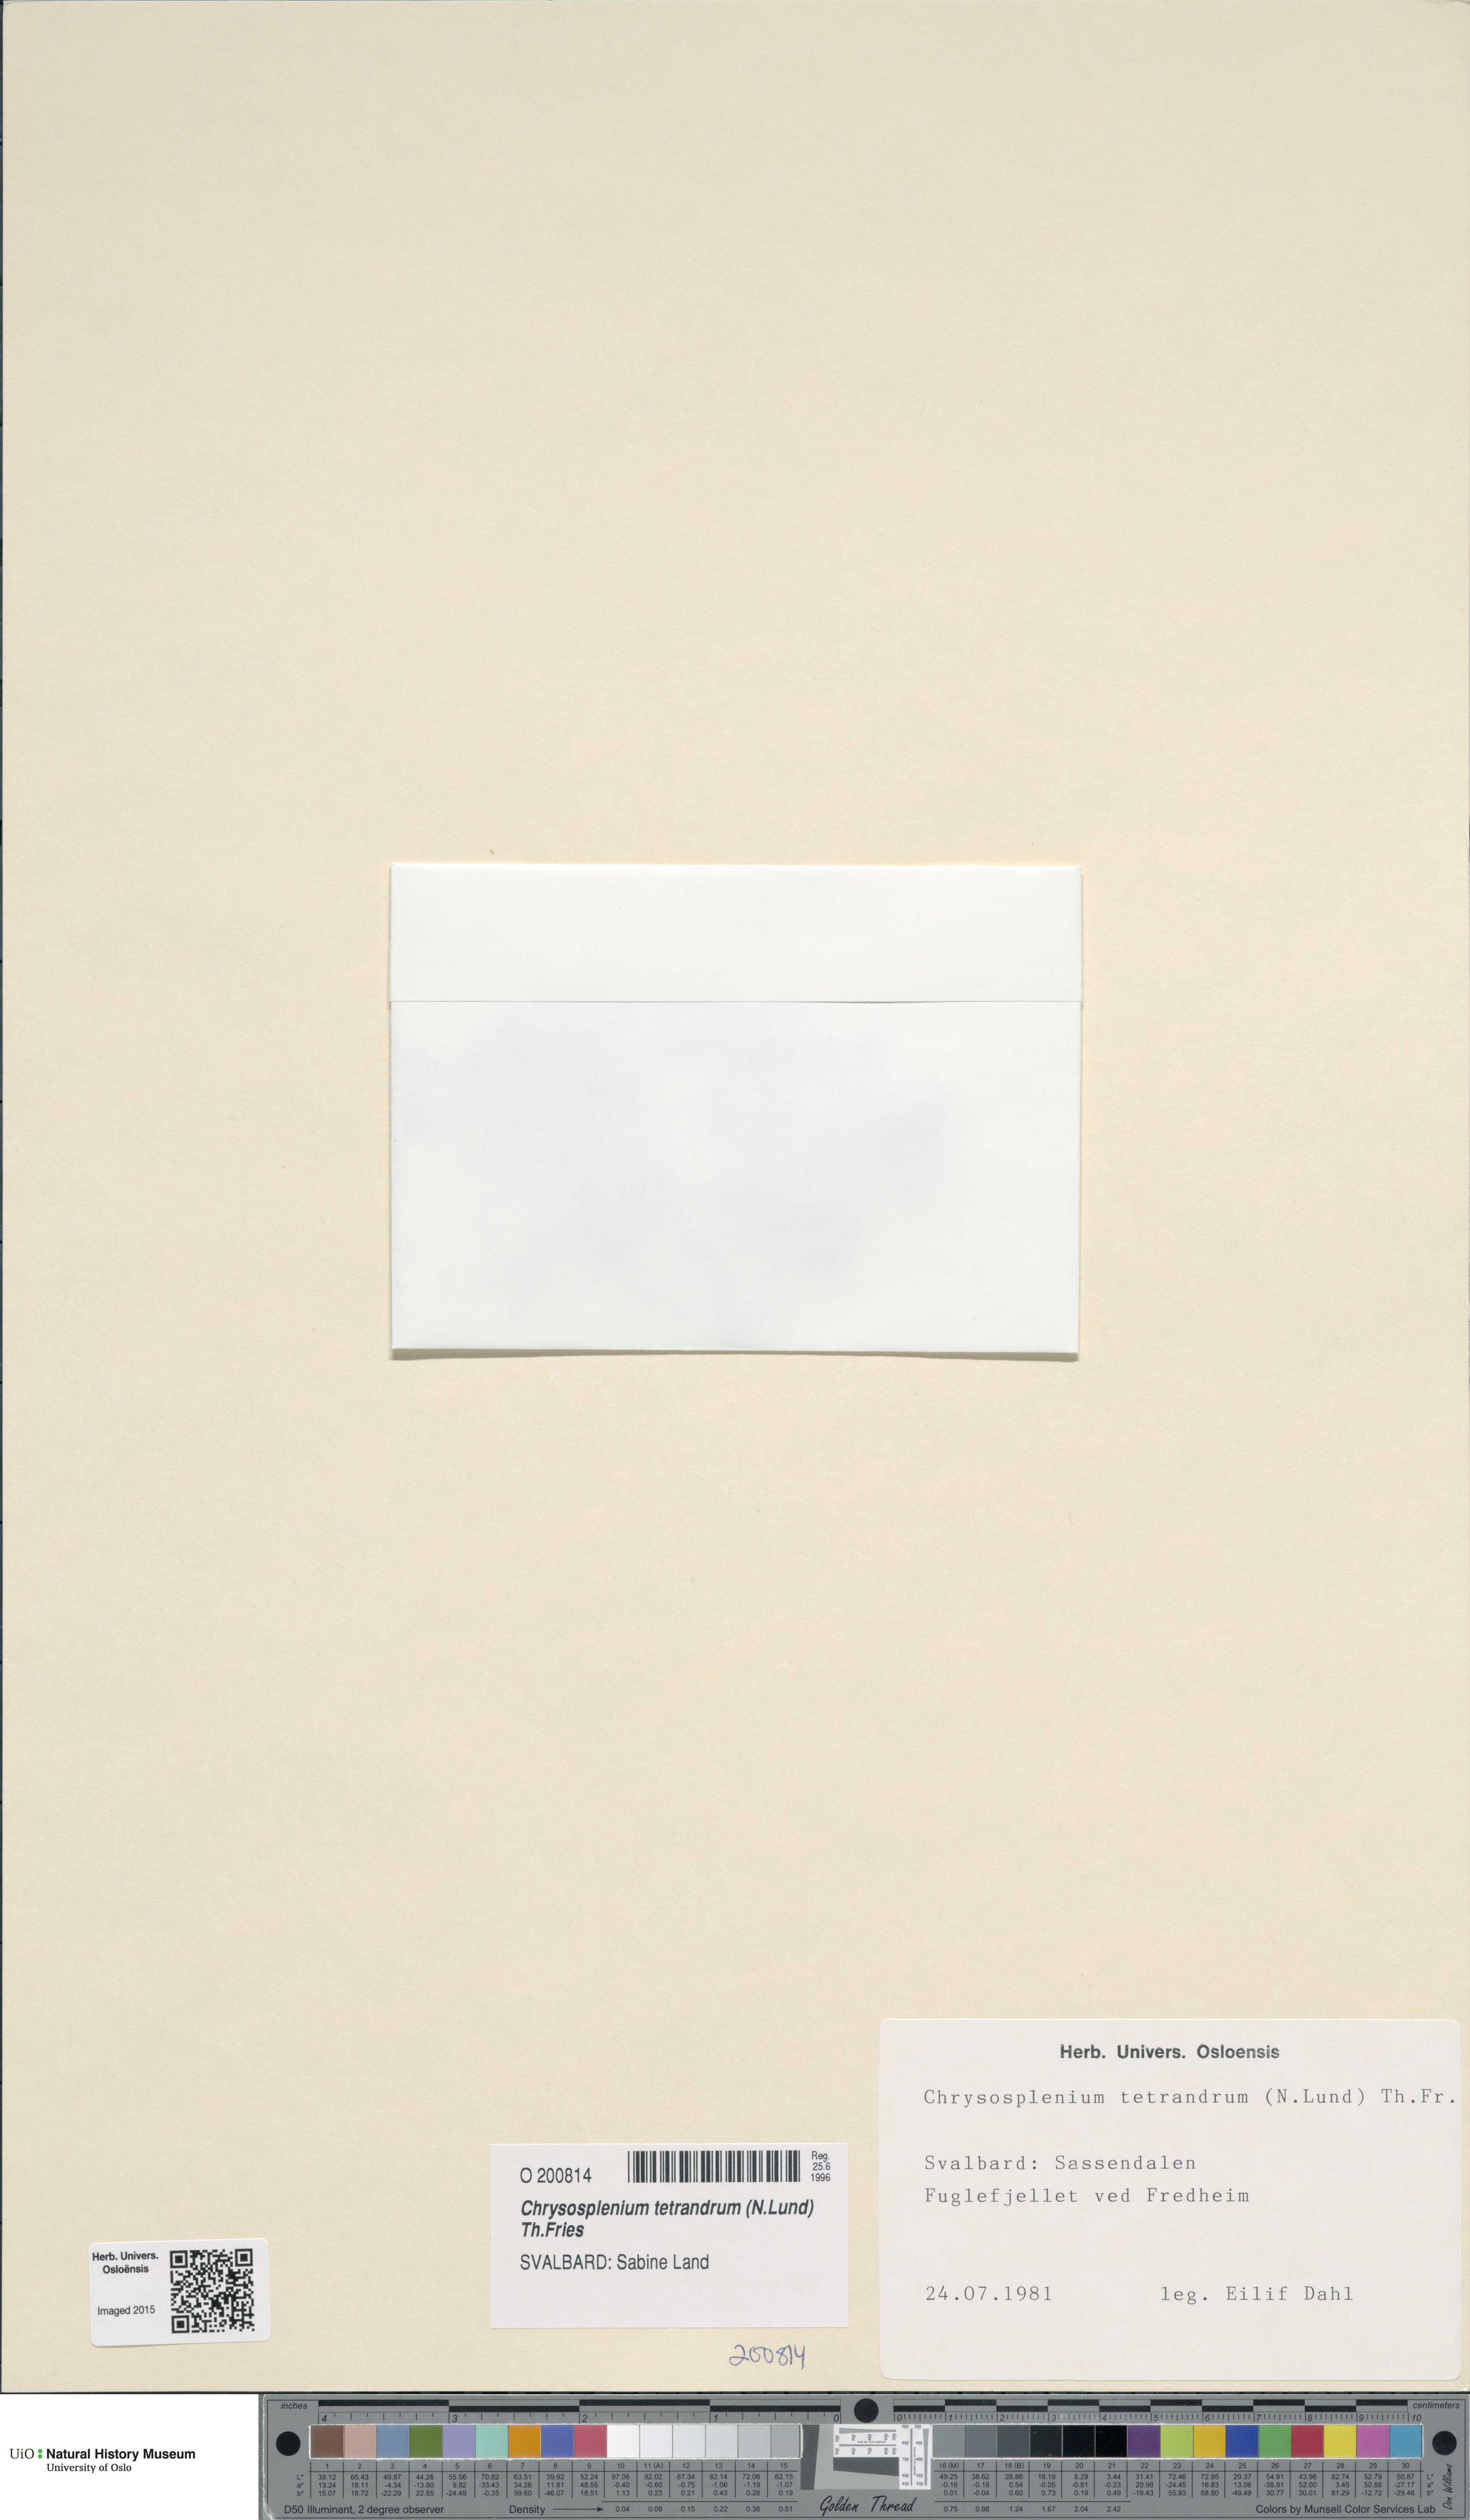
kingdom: Plantae
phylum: Tracheophyta
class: Magnoliopsida
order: Saxifragales
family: Saxifragaceae
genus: Chrysosplenium
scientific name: Chrysosplenium tetrandrum
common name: Green saxifrage
